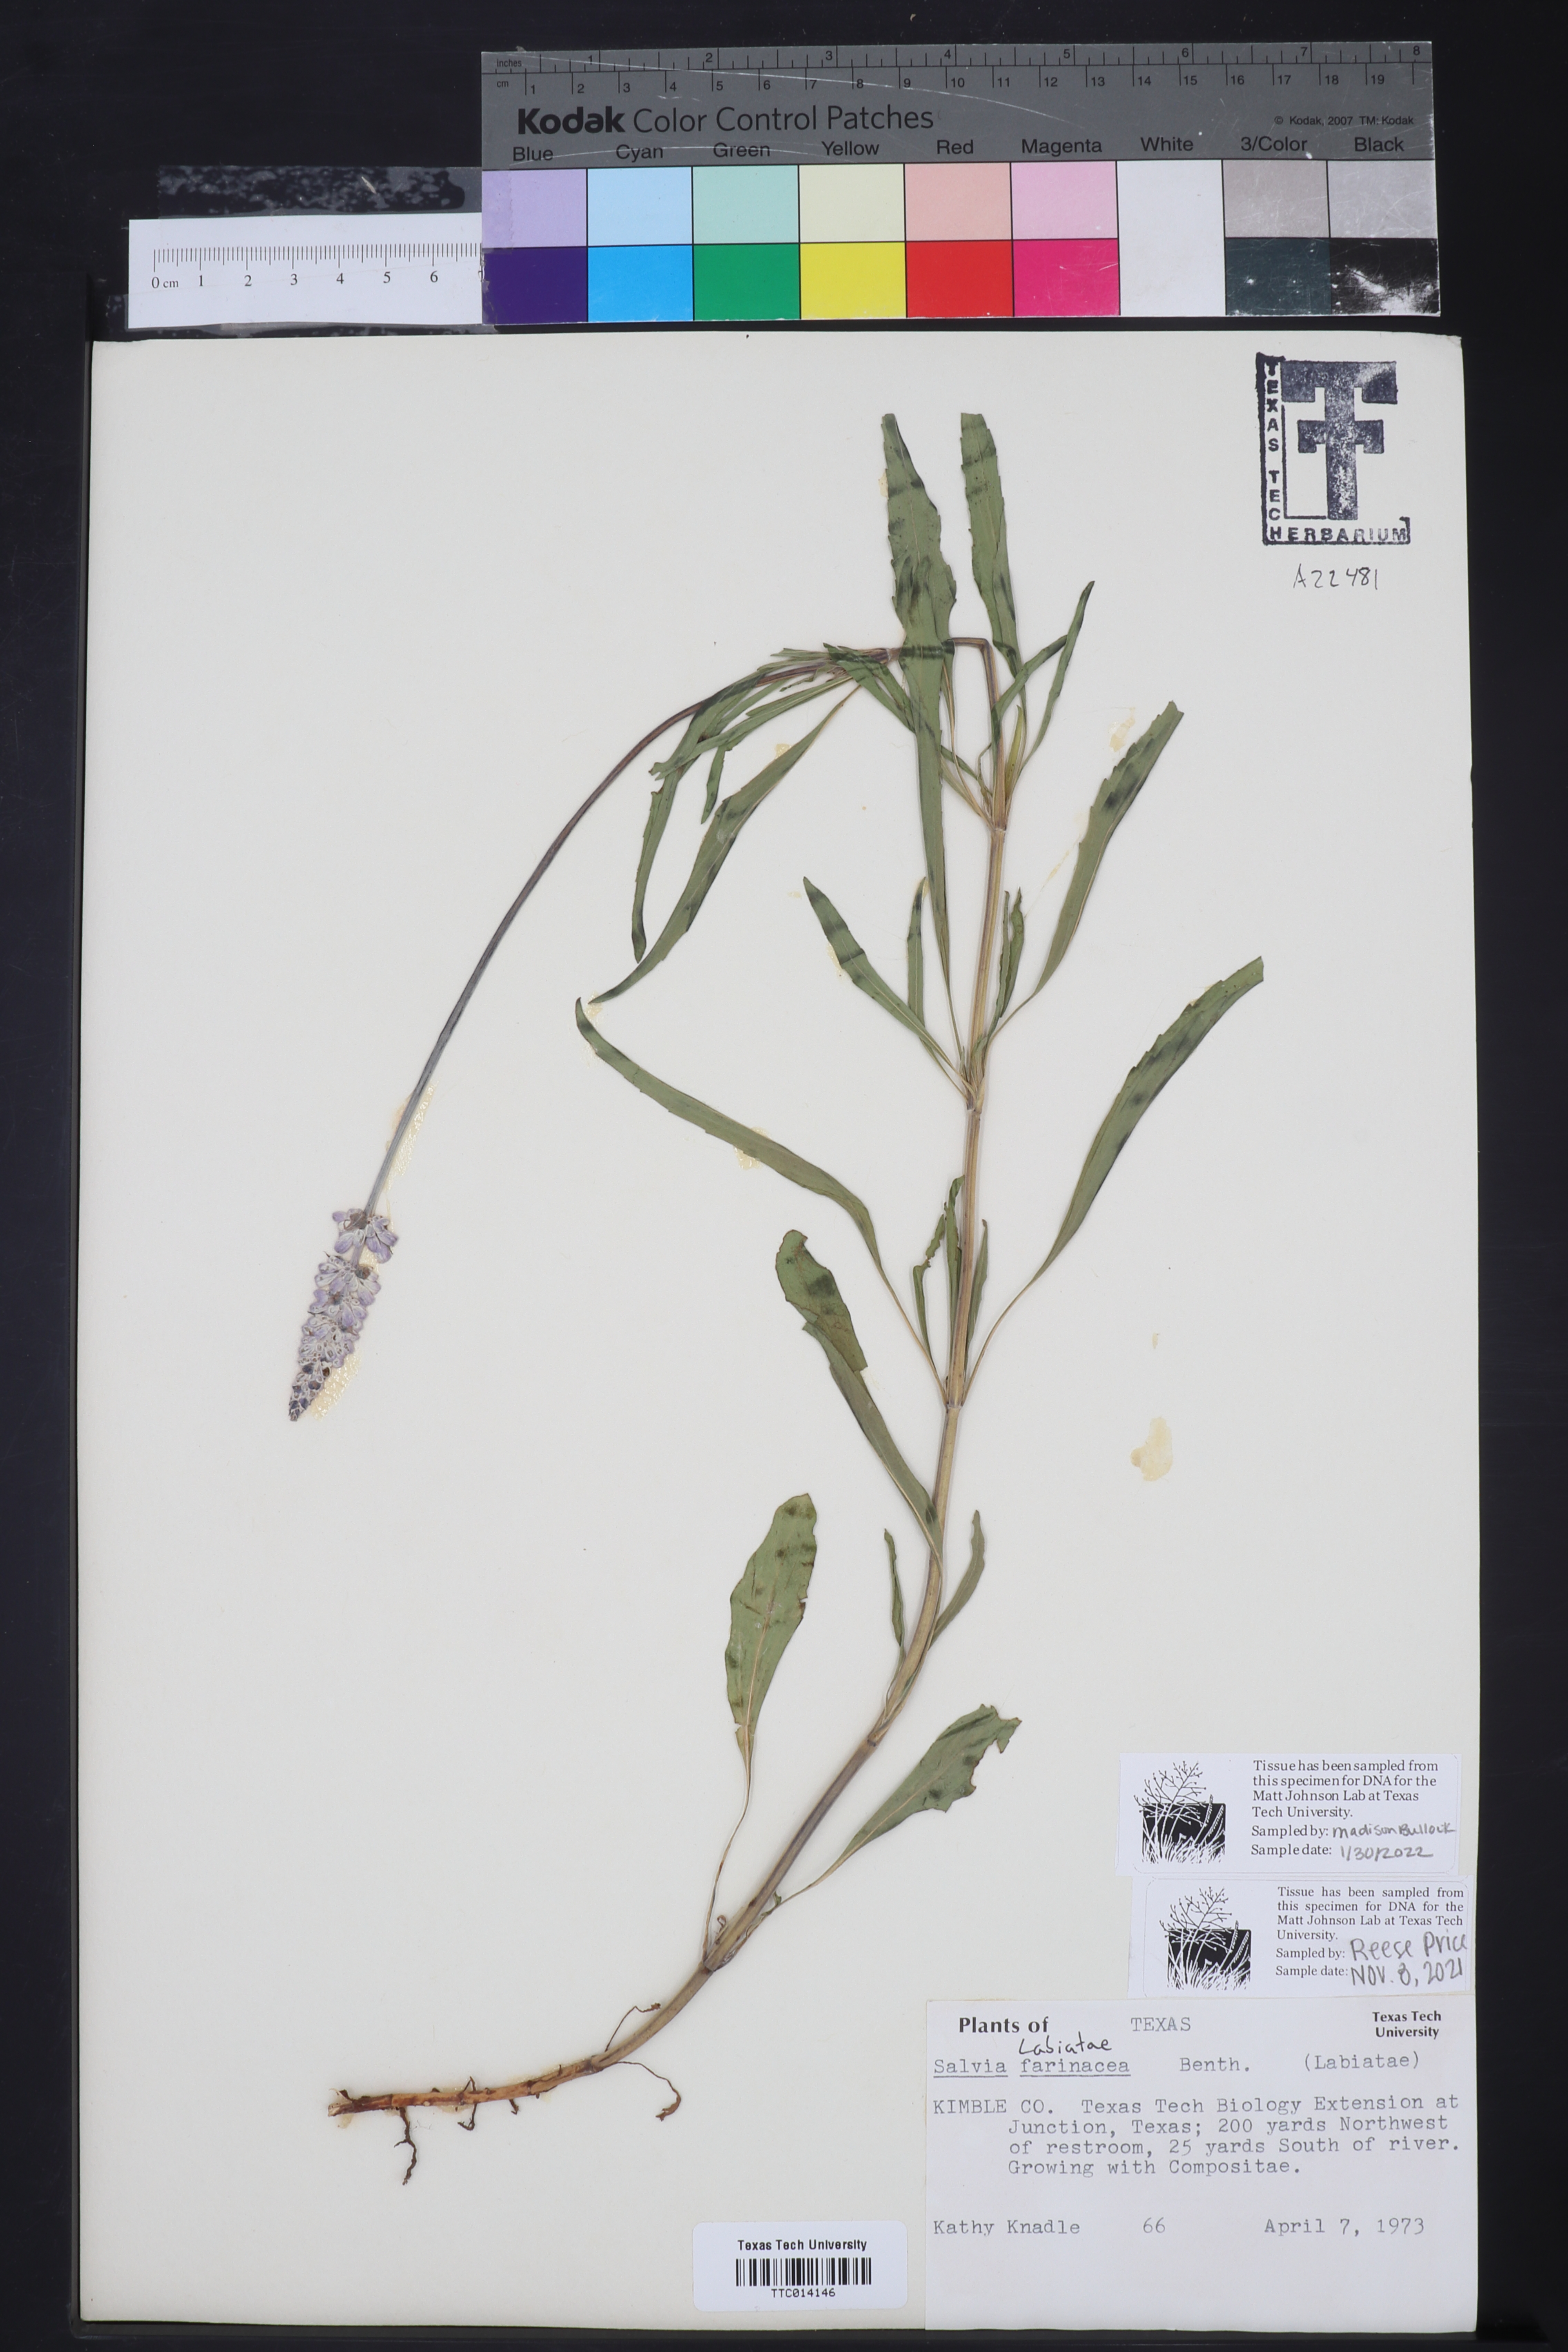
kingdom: Plantae
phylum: Tracheophyta
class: Magnoliopsida
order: Lamiales
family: Lamiaceae
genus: Salvia
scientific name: Salvia farinacea
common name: Mealy sage
